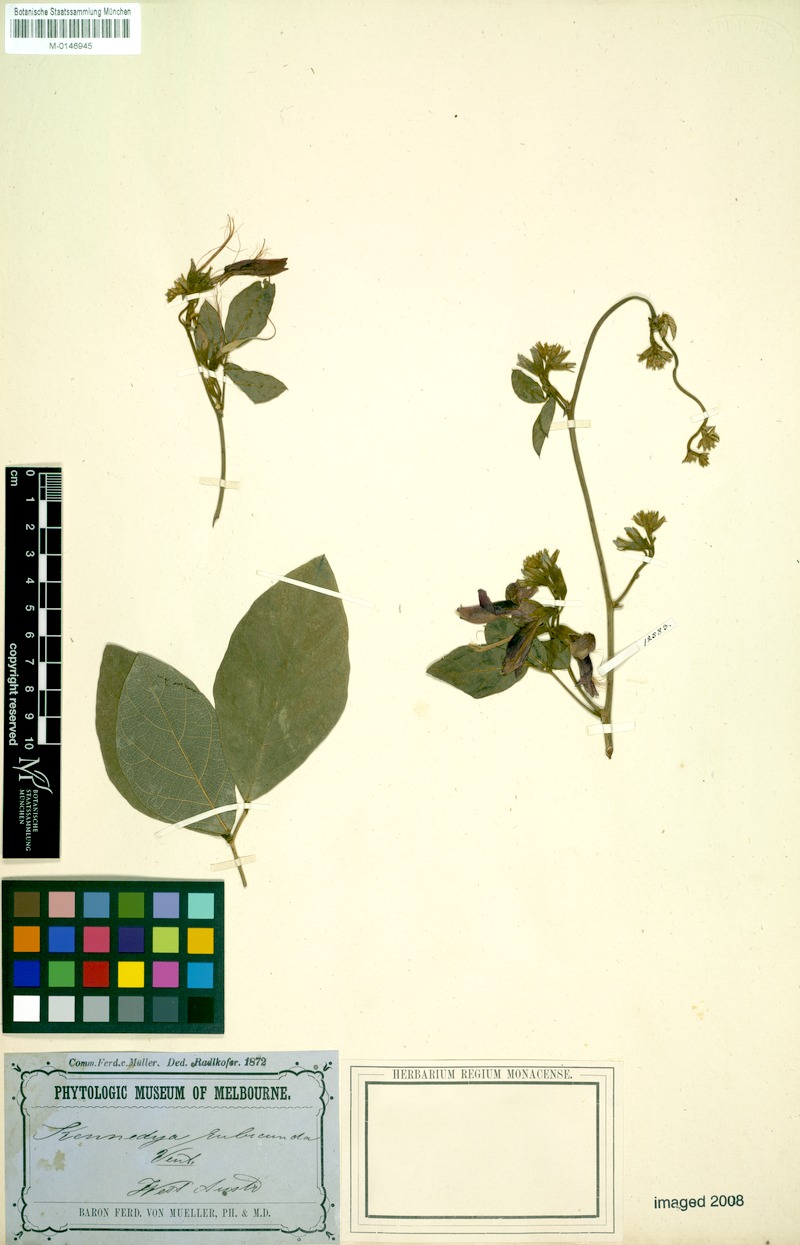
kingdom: Plantae
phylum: Tracheophyta
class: Magnoliopsida
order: Fabales
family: Fabaceae
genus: Kennedia
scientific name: Kennedia rubicunda
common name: Red kennedy-pea
